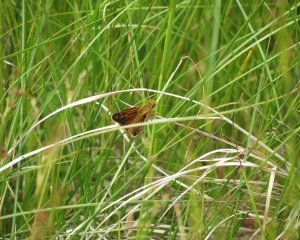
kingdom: Animalia
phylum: Arthropoda
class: Insecta
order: Lepidoptera
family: Hesperiidae
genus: Hesperia
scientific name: Hesperia comma
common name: Common Branded Skipper
